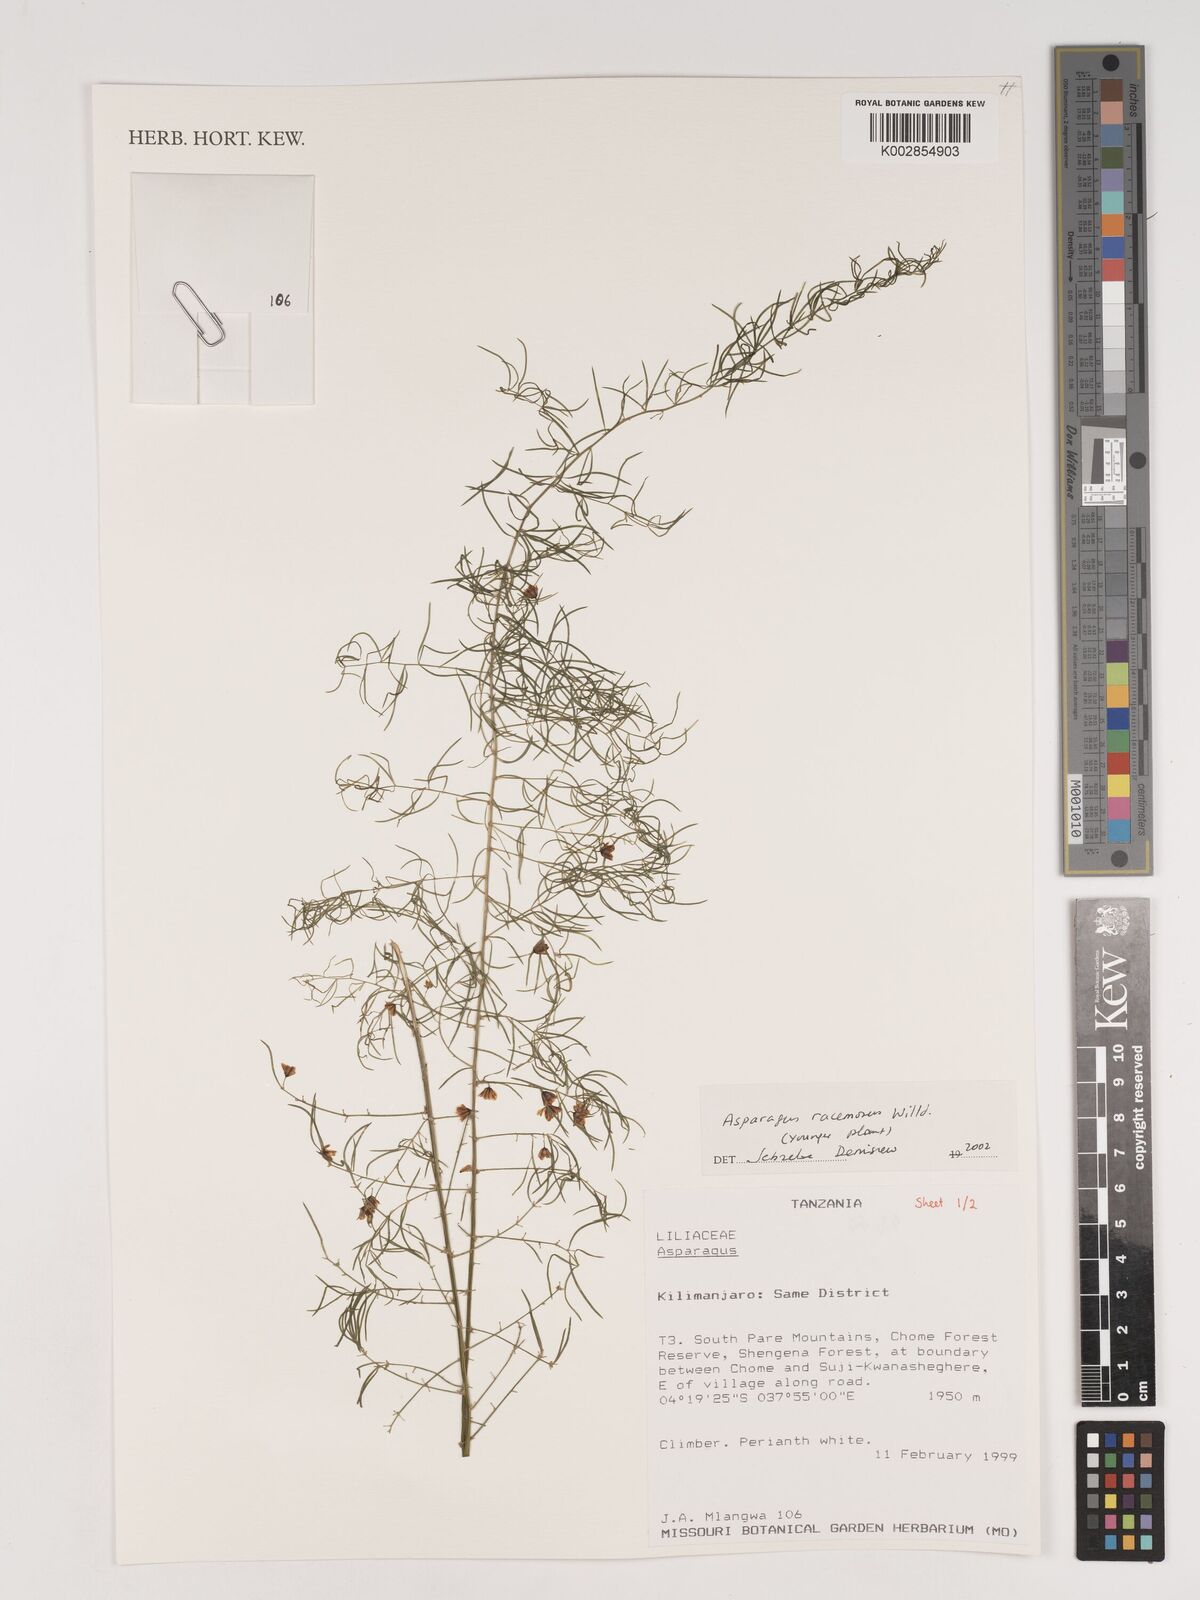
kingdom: Plantae
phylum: Tracheophyta
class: Liliopsida
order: Asparagales
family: Asparagaceae
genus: Asparagus
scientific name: Asparagus racemosus
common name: Asparagus-fern
